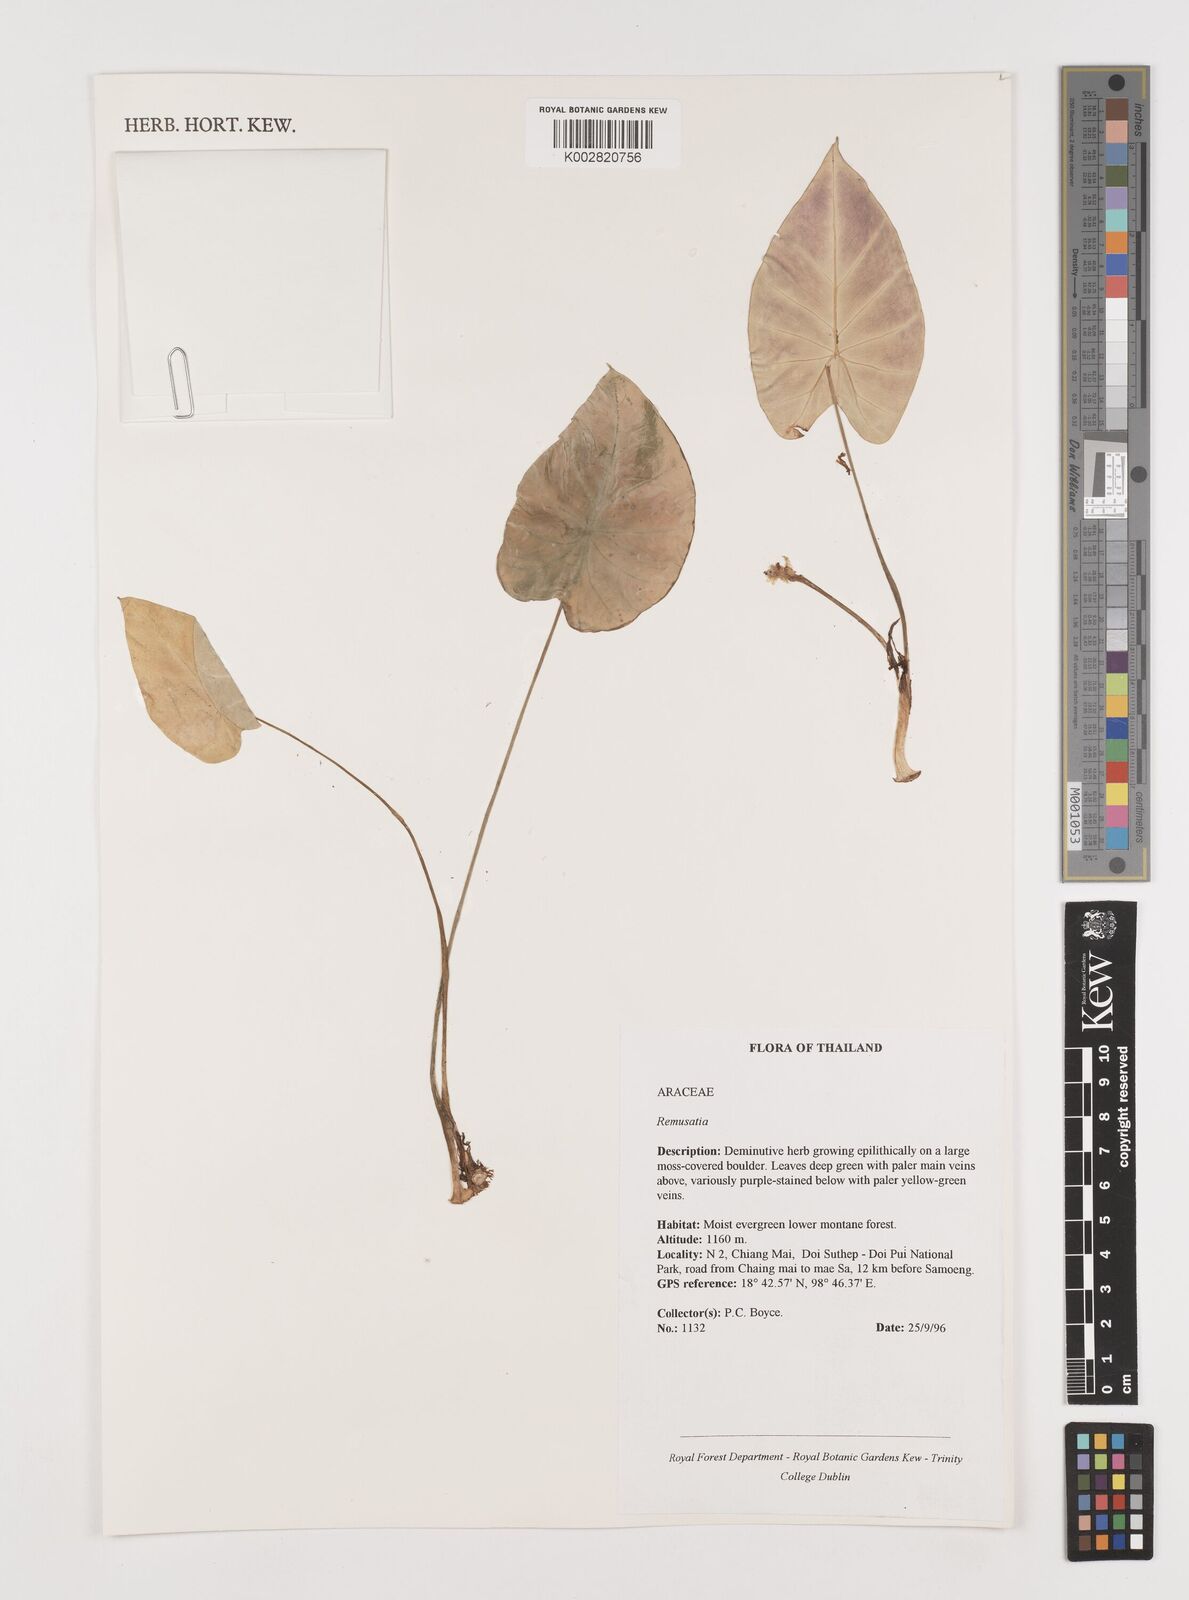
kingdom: Plantae
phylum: Tracheophyta
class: Liliopsida
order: Alismatales
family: Araceae
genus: Remusatia
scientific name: Remusatia pumila
